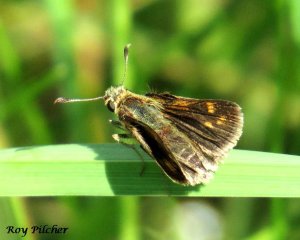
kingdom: Animalia
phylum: Arthropoda
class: Insecta
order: Lepidoptera
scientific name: Lepidoptera
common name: Butterflies
